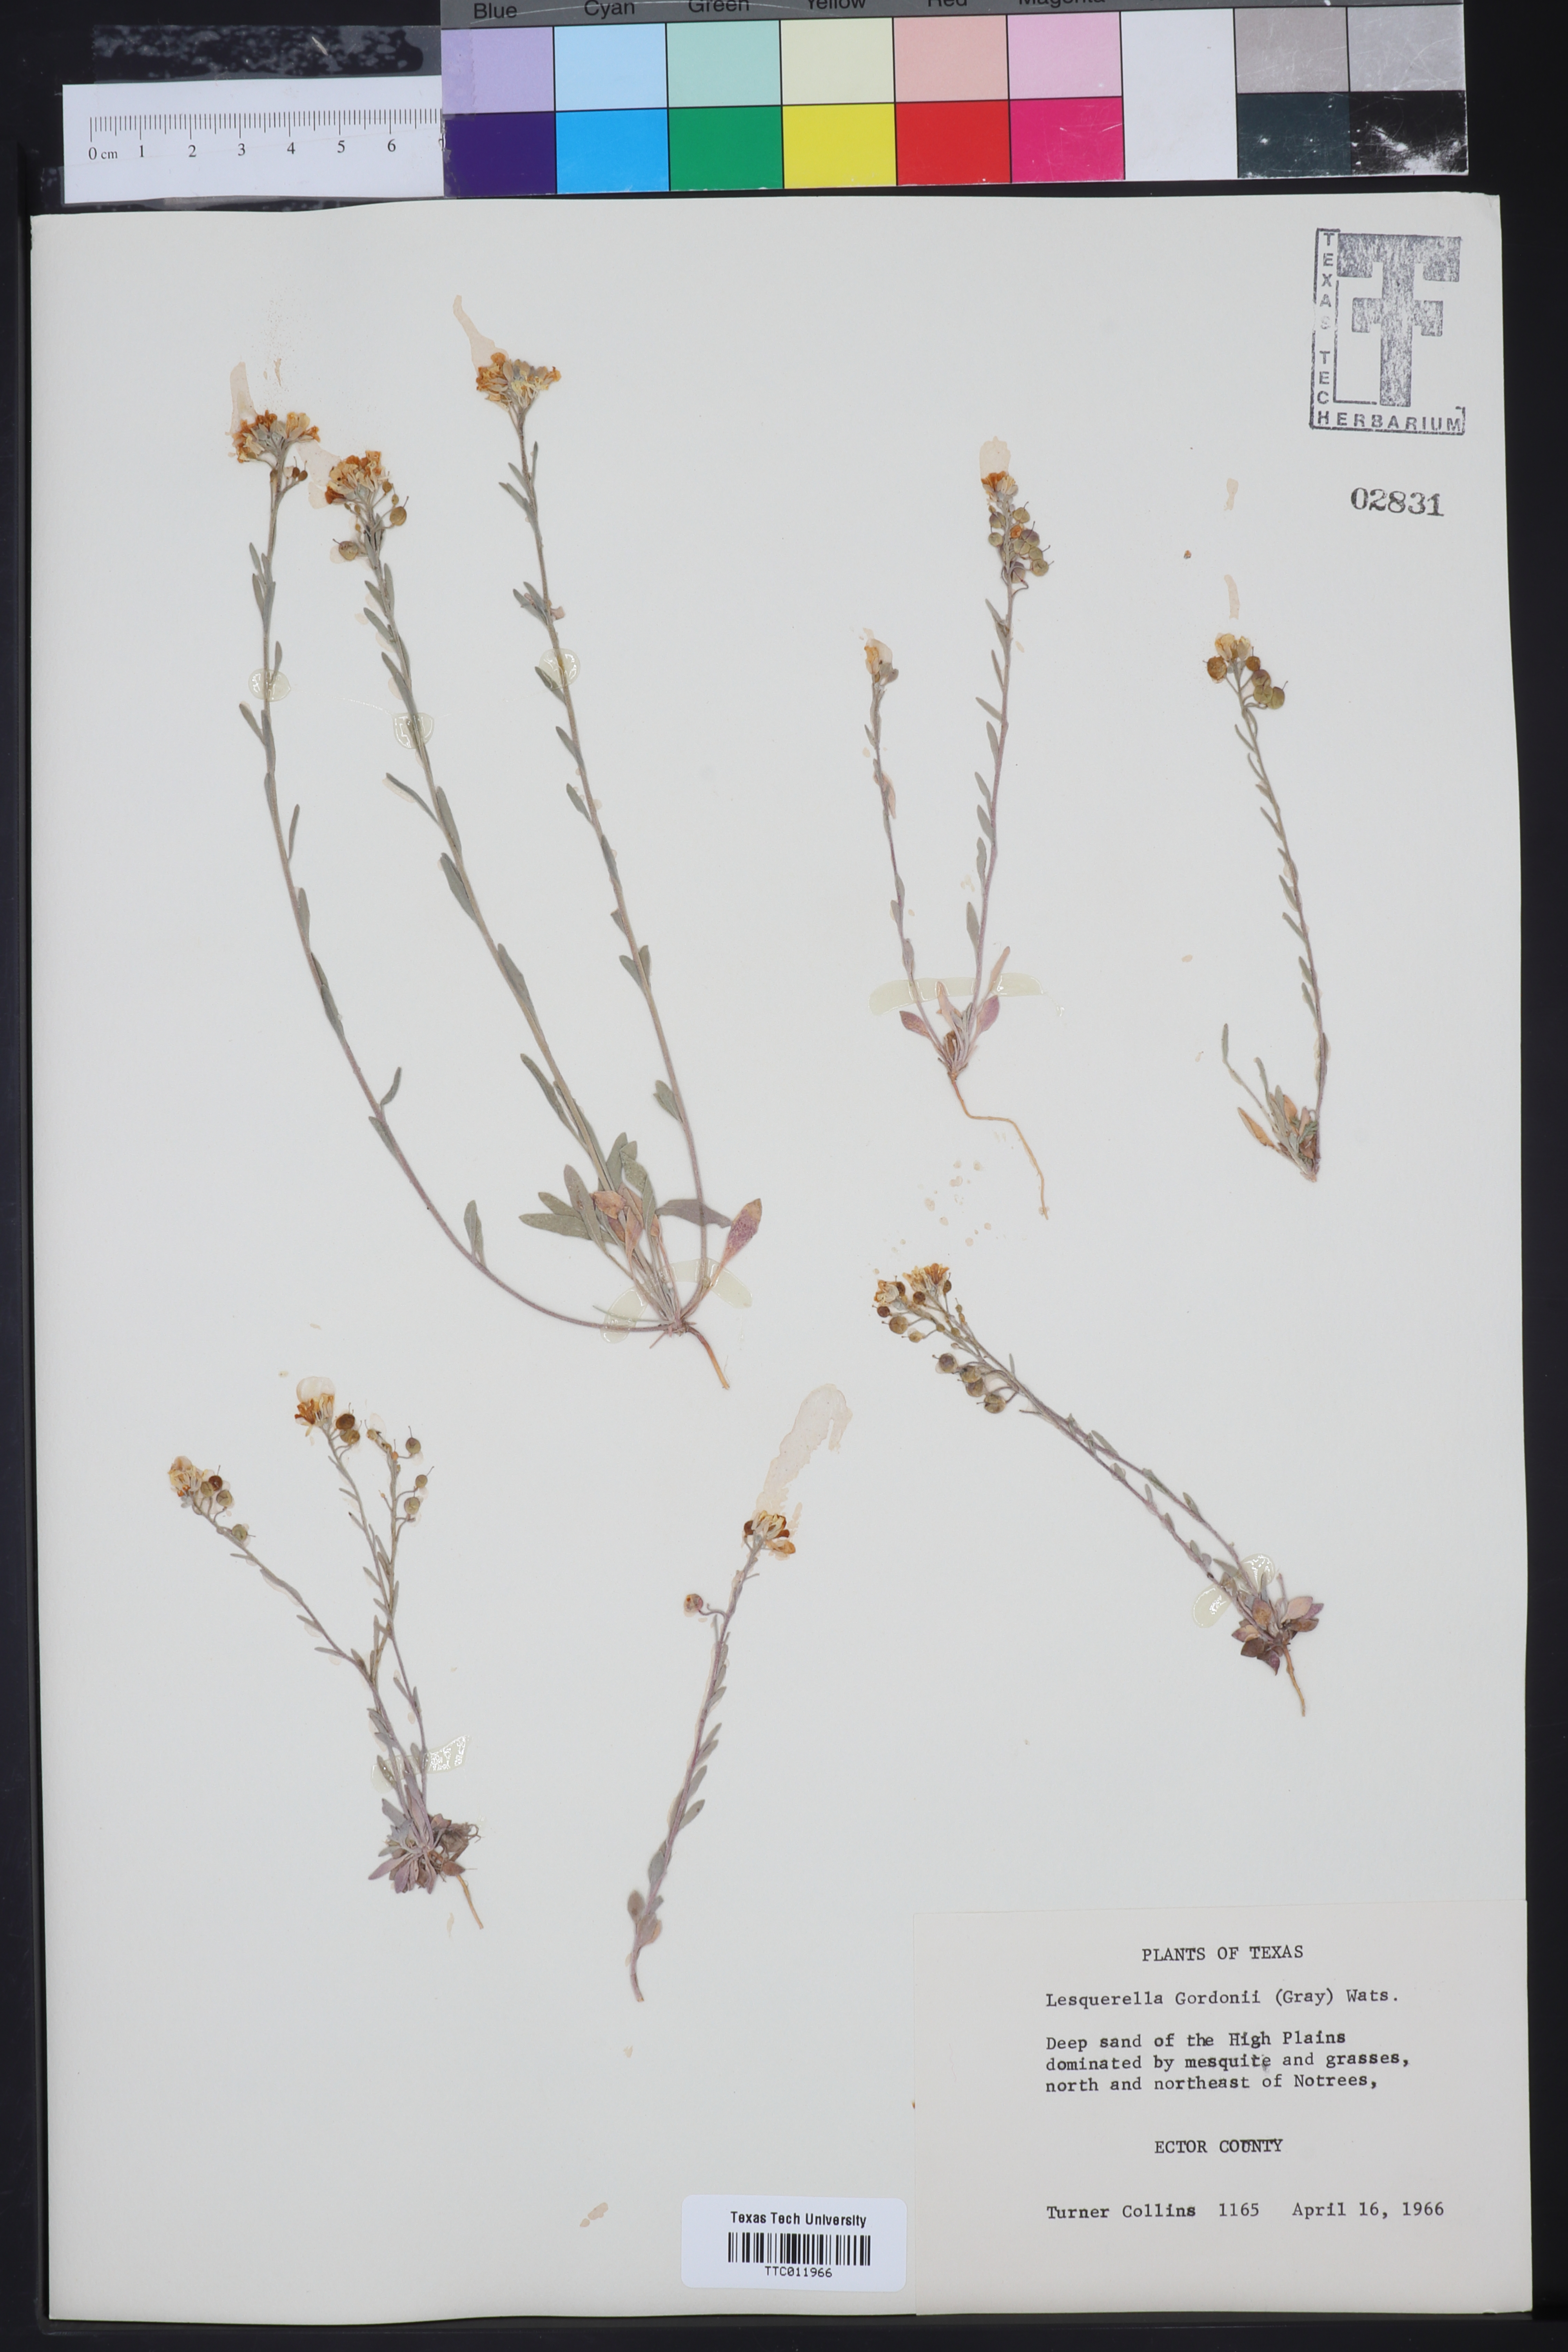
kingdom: Plantae
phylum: Tracheophyta
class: Magnoliopsida
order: Brassicales
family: Brassicaceae
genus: Physaria
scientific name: Physaria gordonii
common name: Gordon's bladderpod
